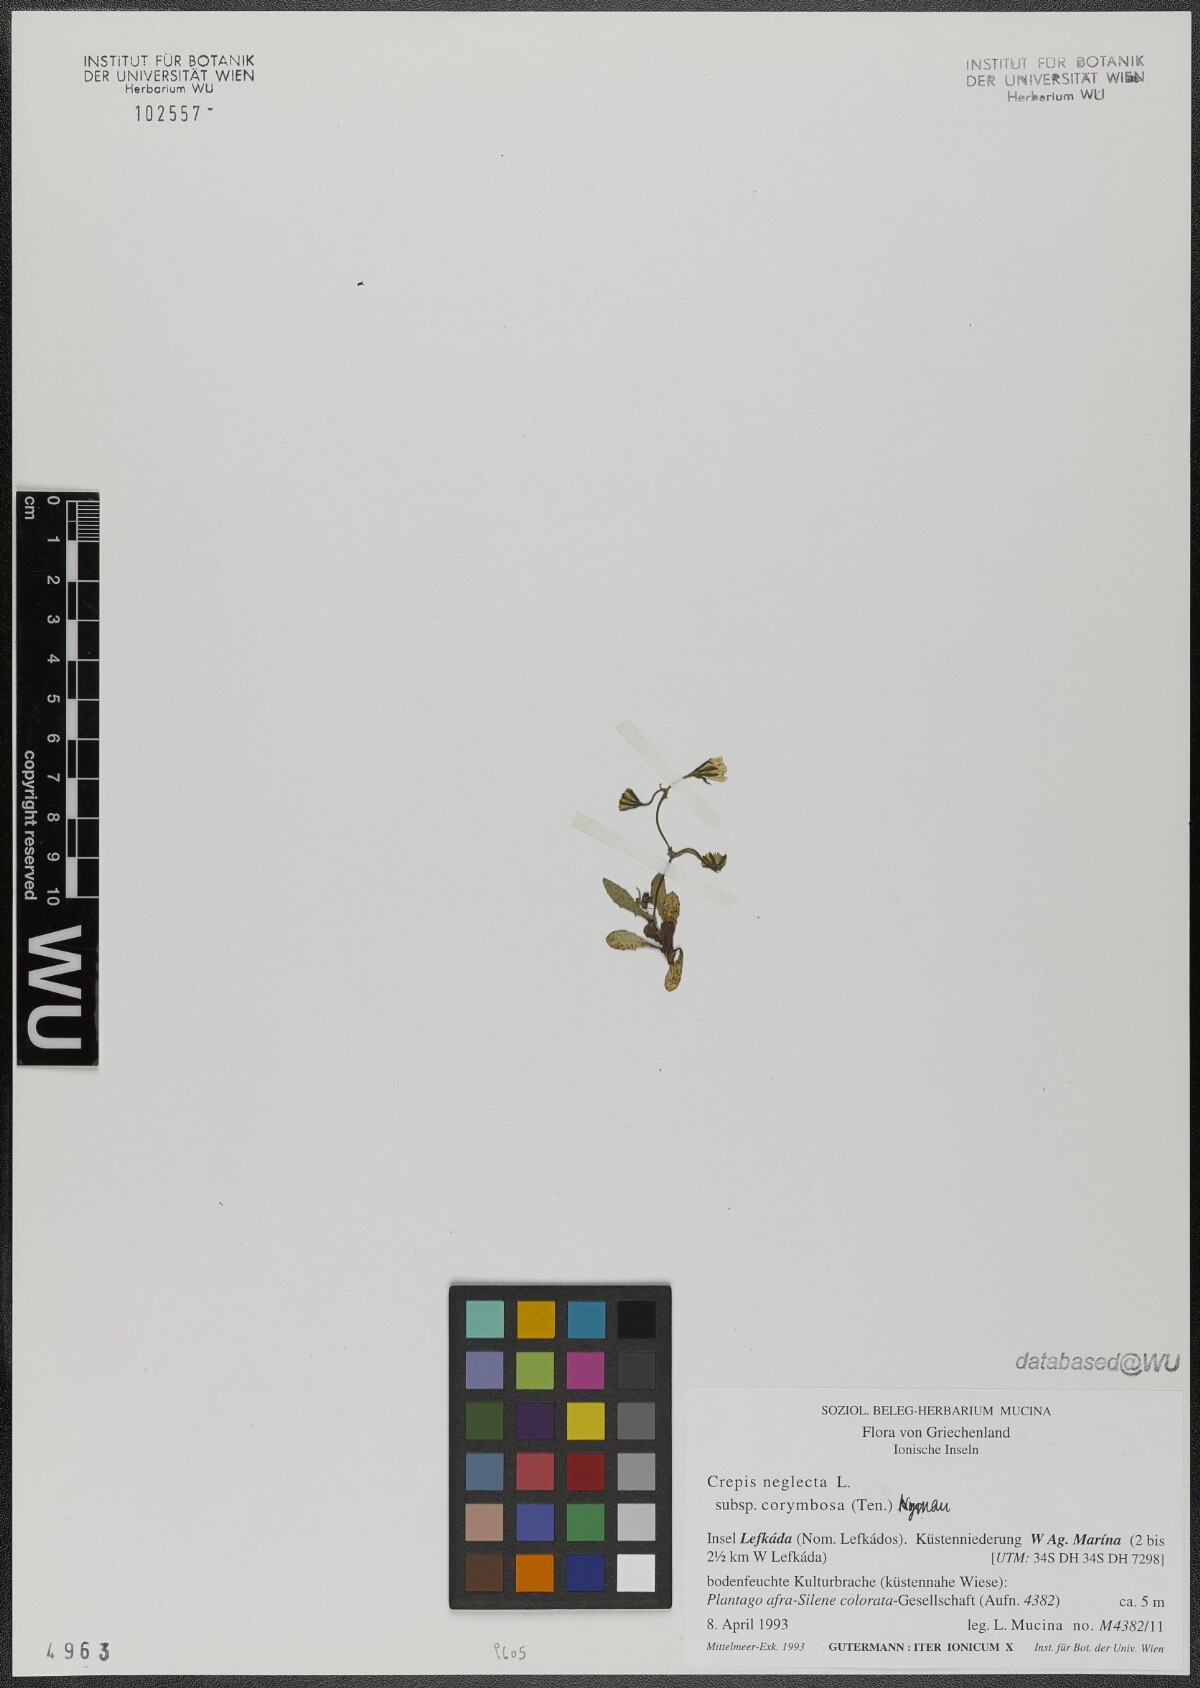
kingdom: Plantae
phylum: Tracheophyta
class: Magnoliopsida
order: Asterales
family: Asteraceae
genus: Crepis
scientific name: Crepis neglecta
